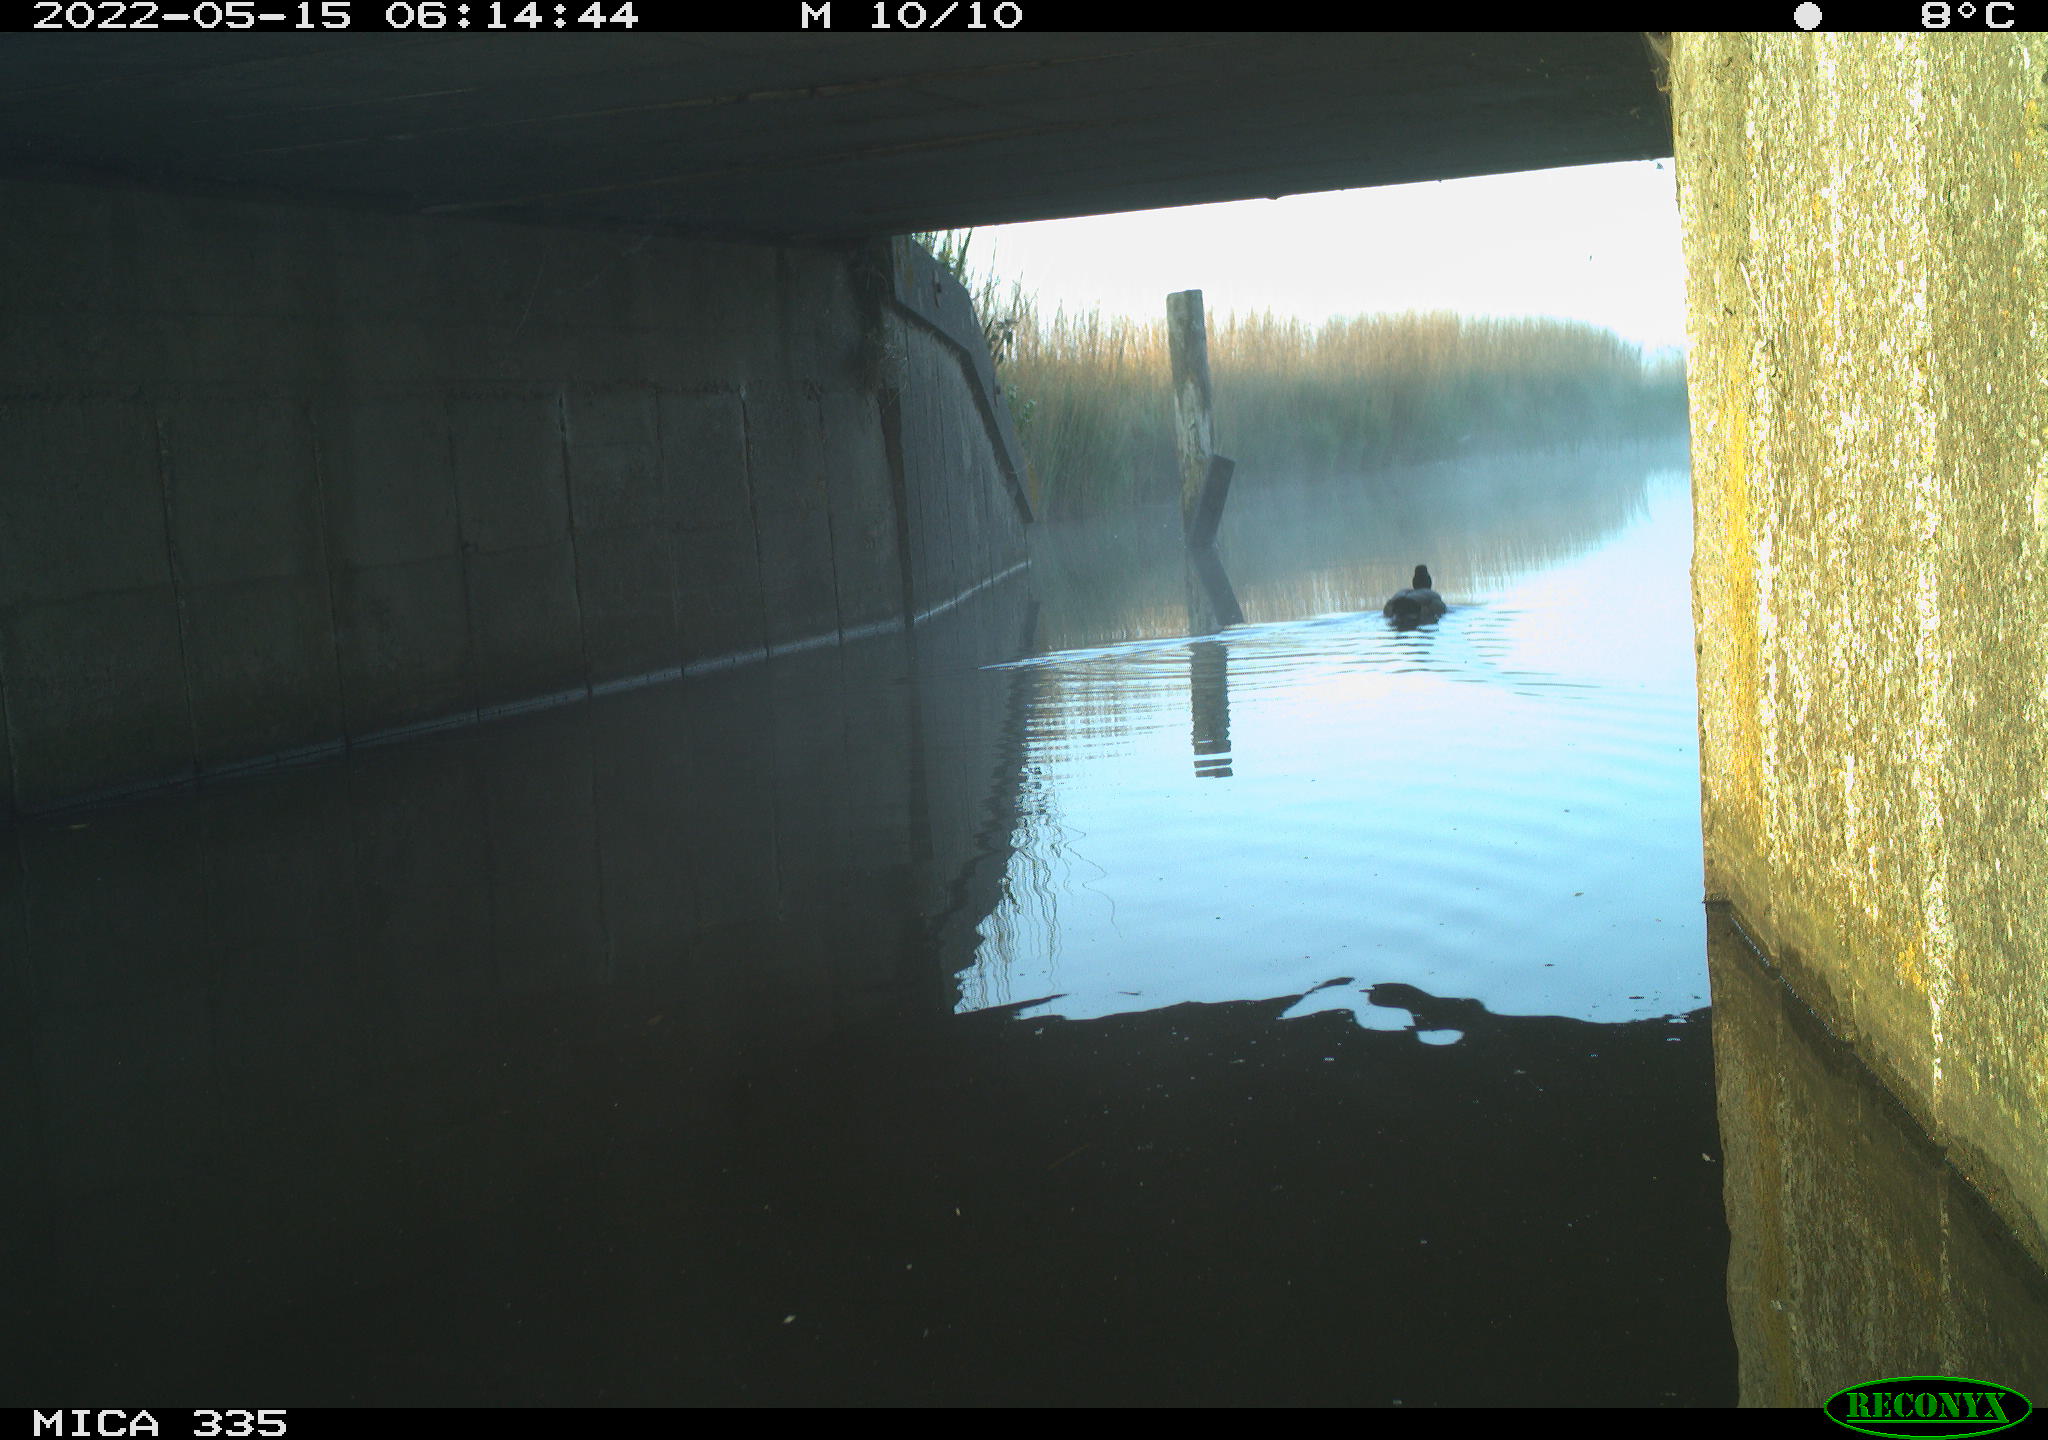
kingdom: Animalia
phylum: Chordata
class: Aves
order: Anseriformes
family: Anatidae
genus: Anas
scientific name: Anas platyrhynchos
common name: Mallard
